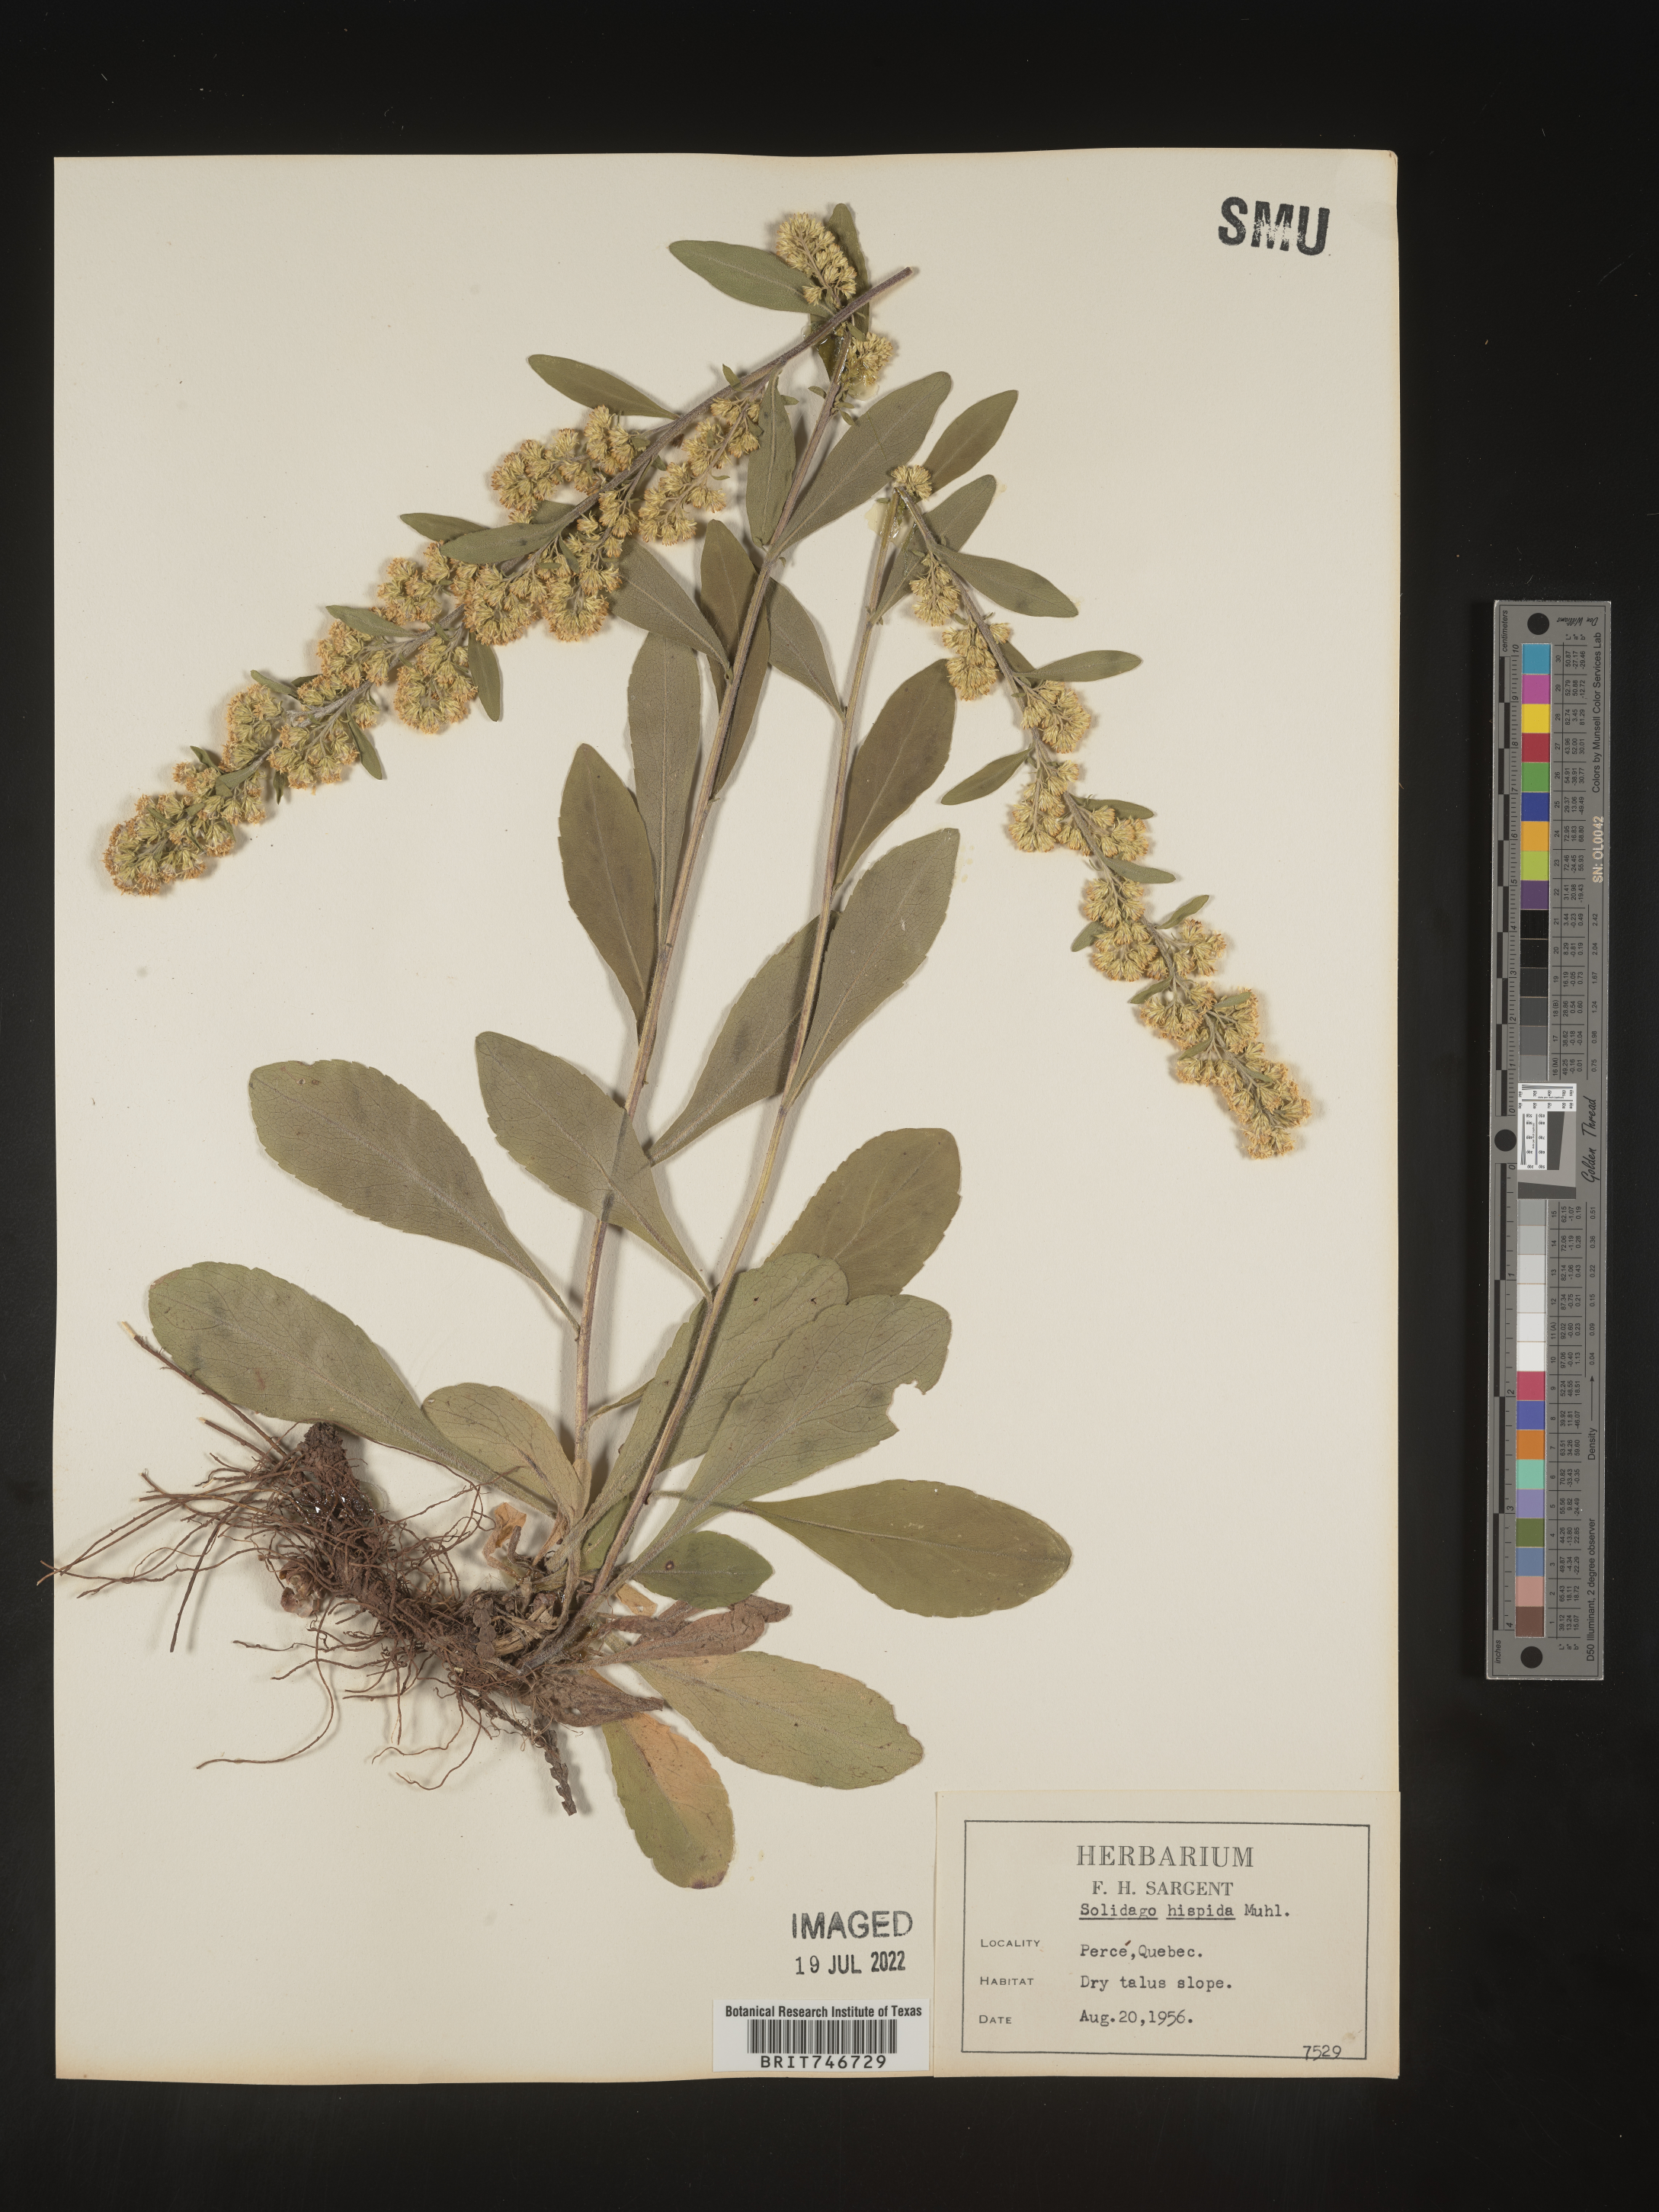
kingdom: Plantae
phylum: Tracheophyta
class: Magnoliopsida
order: Asterales
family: Asteraceae
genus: Solidago
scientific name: Solidago hispida
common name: Hairy goldenrod
